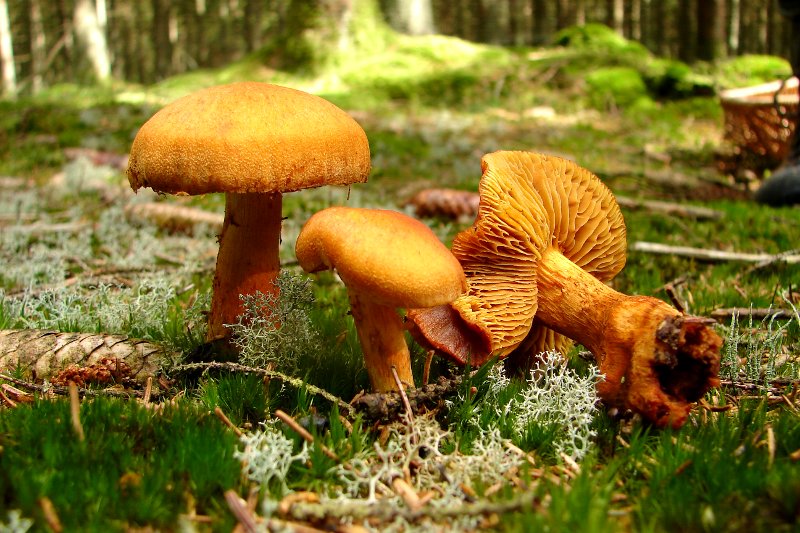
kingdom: Fungi
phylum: Basidiomycota
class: Agaricomycetes
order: Agaricales
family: Cortinariaceae
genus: Aureonarius
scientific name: Aureonarius limonius
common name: orangegul slørhat
